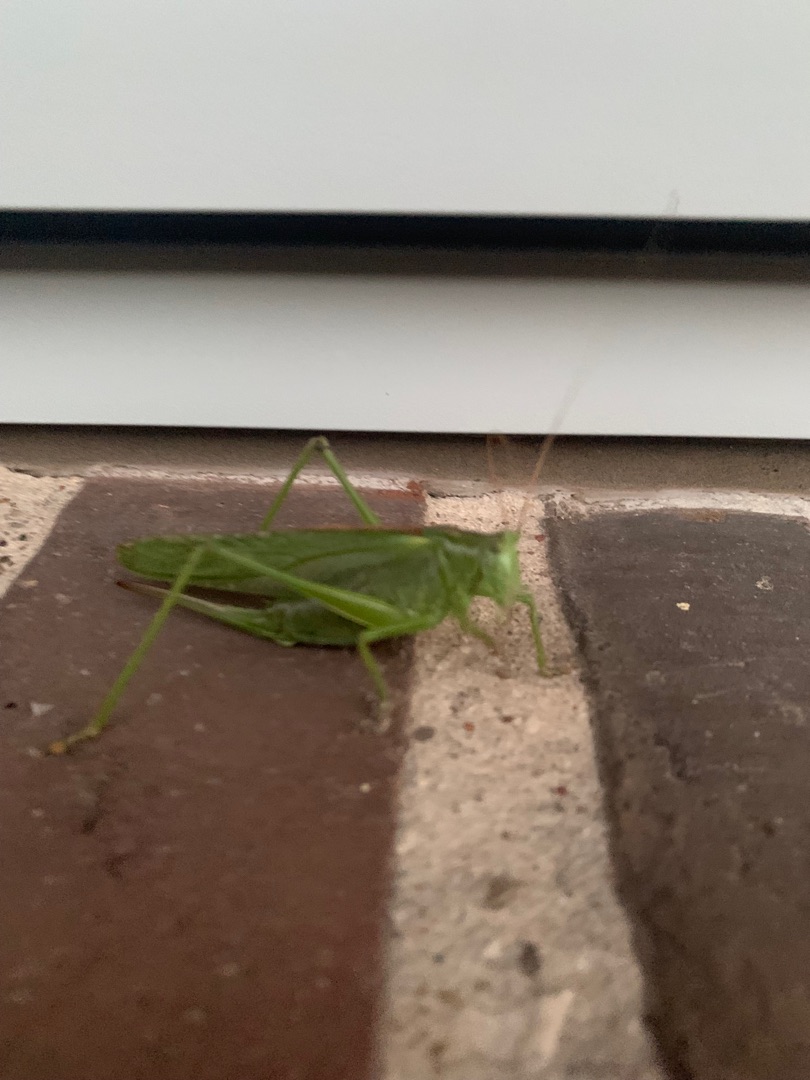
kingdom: Animalia
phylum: Arthropoda
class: Insecta
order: Orthoptera
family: Tettigoniidae
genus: Tettigonia
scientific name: Tettigonia viridissima
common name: Stor grøn løvgræshoppe
